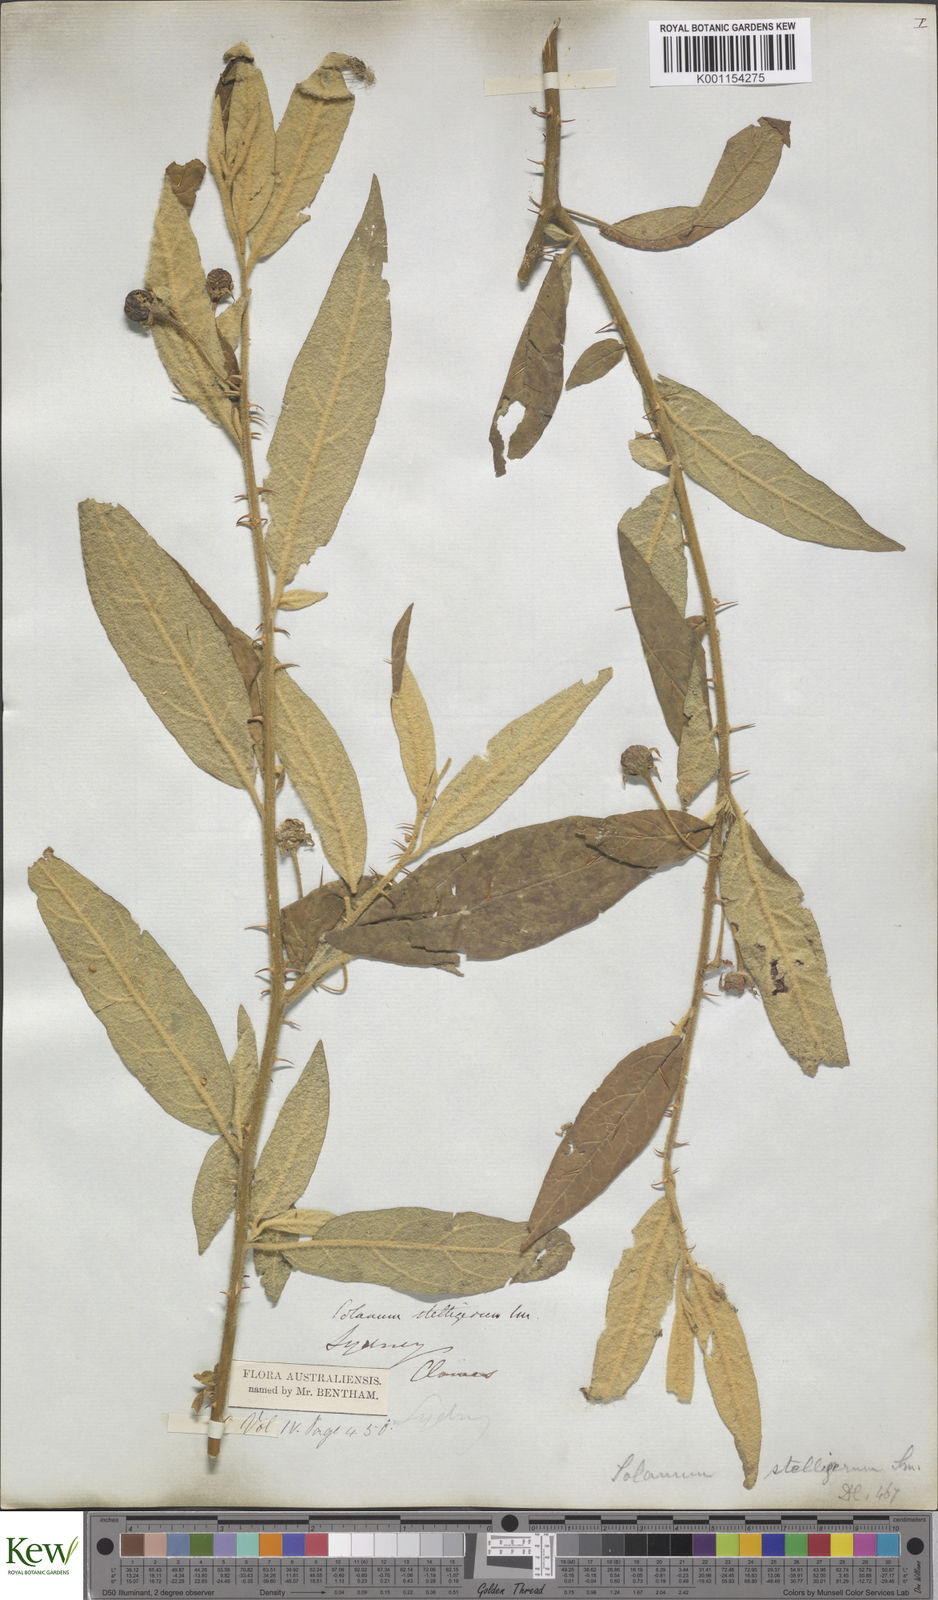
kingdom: Plantae
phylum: Tracheophyta
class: Magnoliopsida
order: Solanales
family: Solanaceae
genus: Solanum
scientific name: Solanum stelligerum
